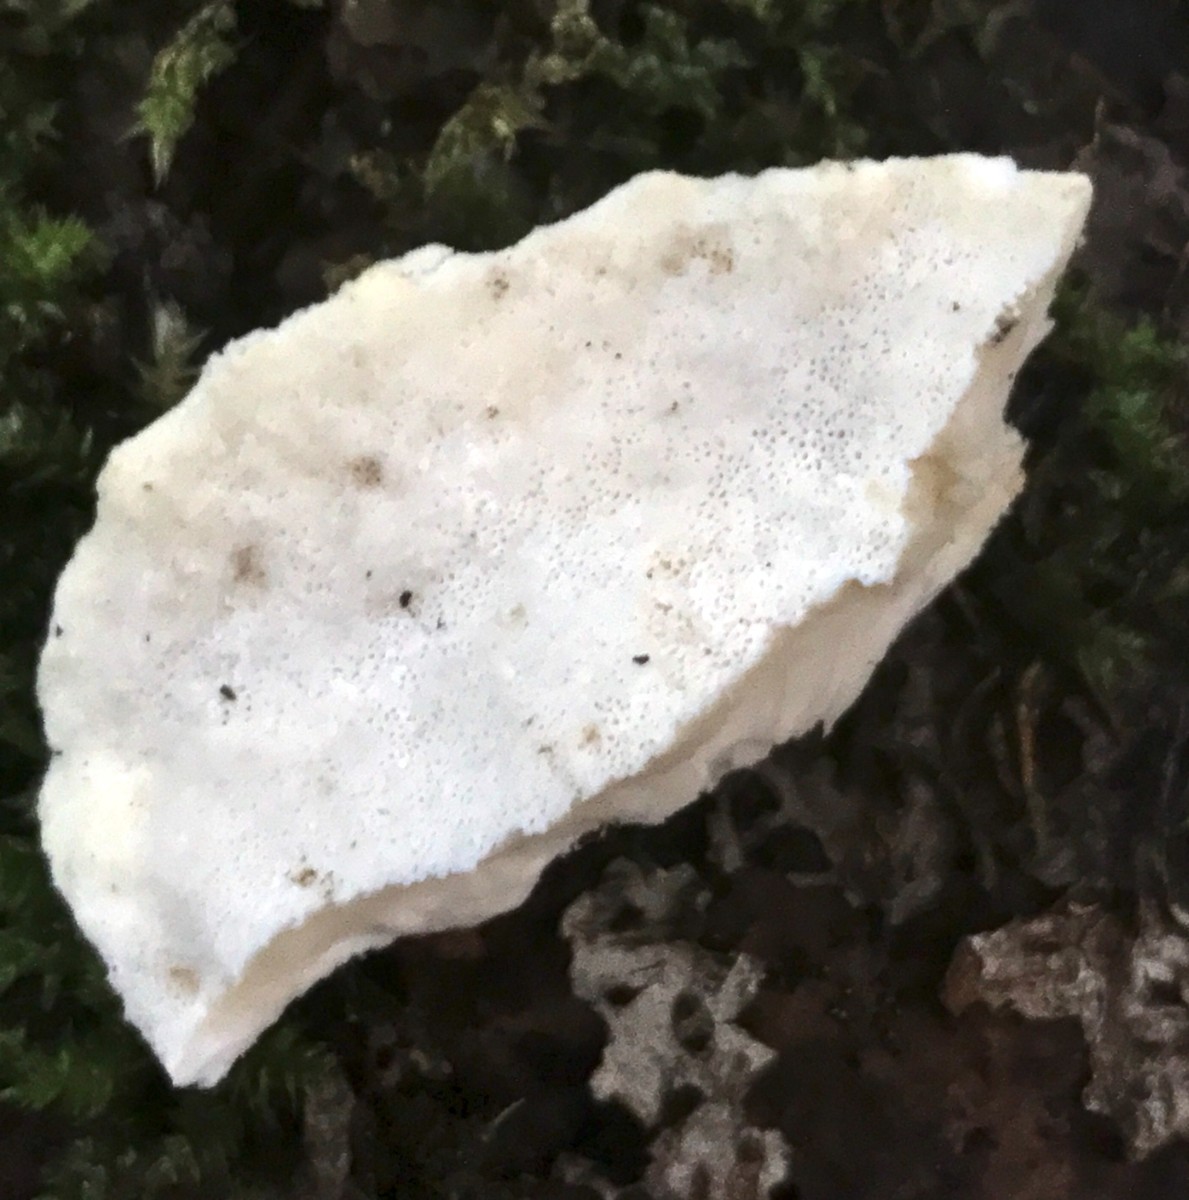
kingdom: Fungi
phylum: Basidiomycota
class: Agaricomycetes
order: Polyporales
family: Incrustoporiaceae
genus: Tyromyces
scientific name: Tyromyces lacteus
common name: mælkehvid kødporesvamp
